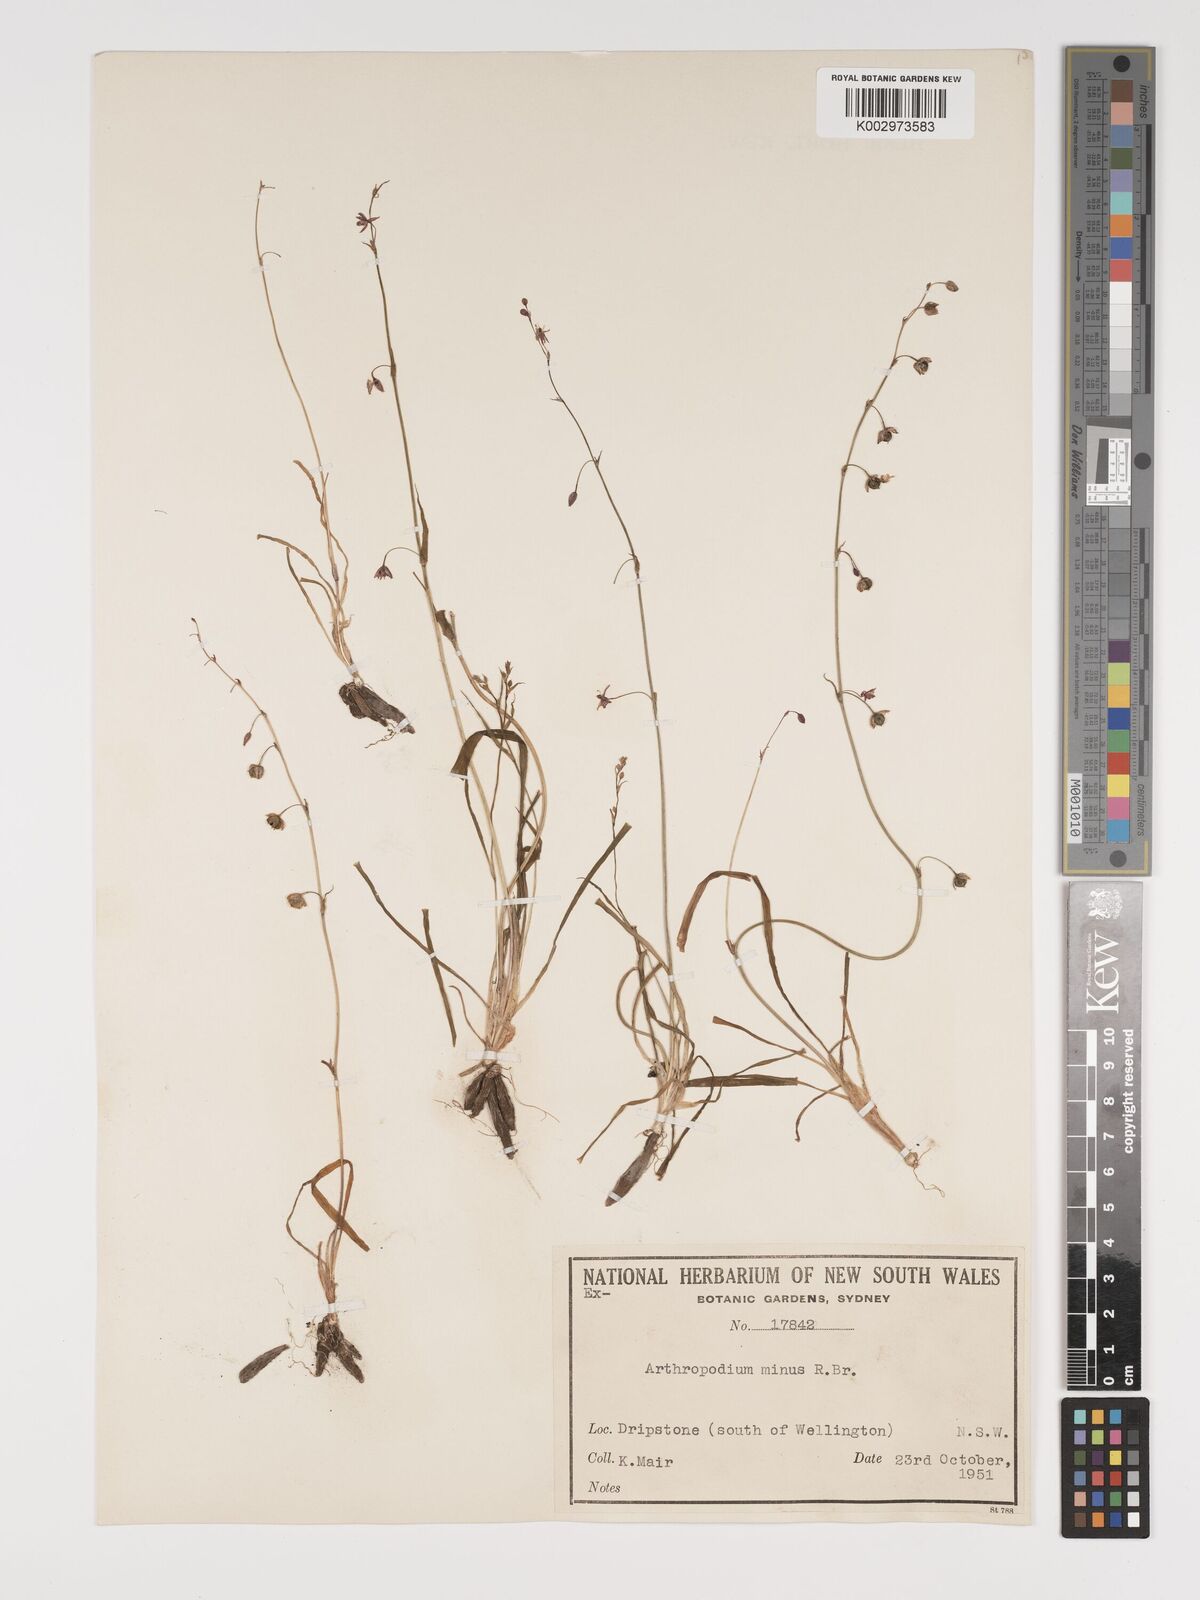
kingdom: Plantae
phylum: Tracheophyta
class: Liliopsida
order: Asparagales
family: Asparagaceae
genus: Arthropodium
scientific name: Arthropodium minus
